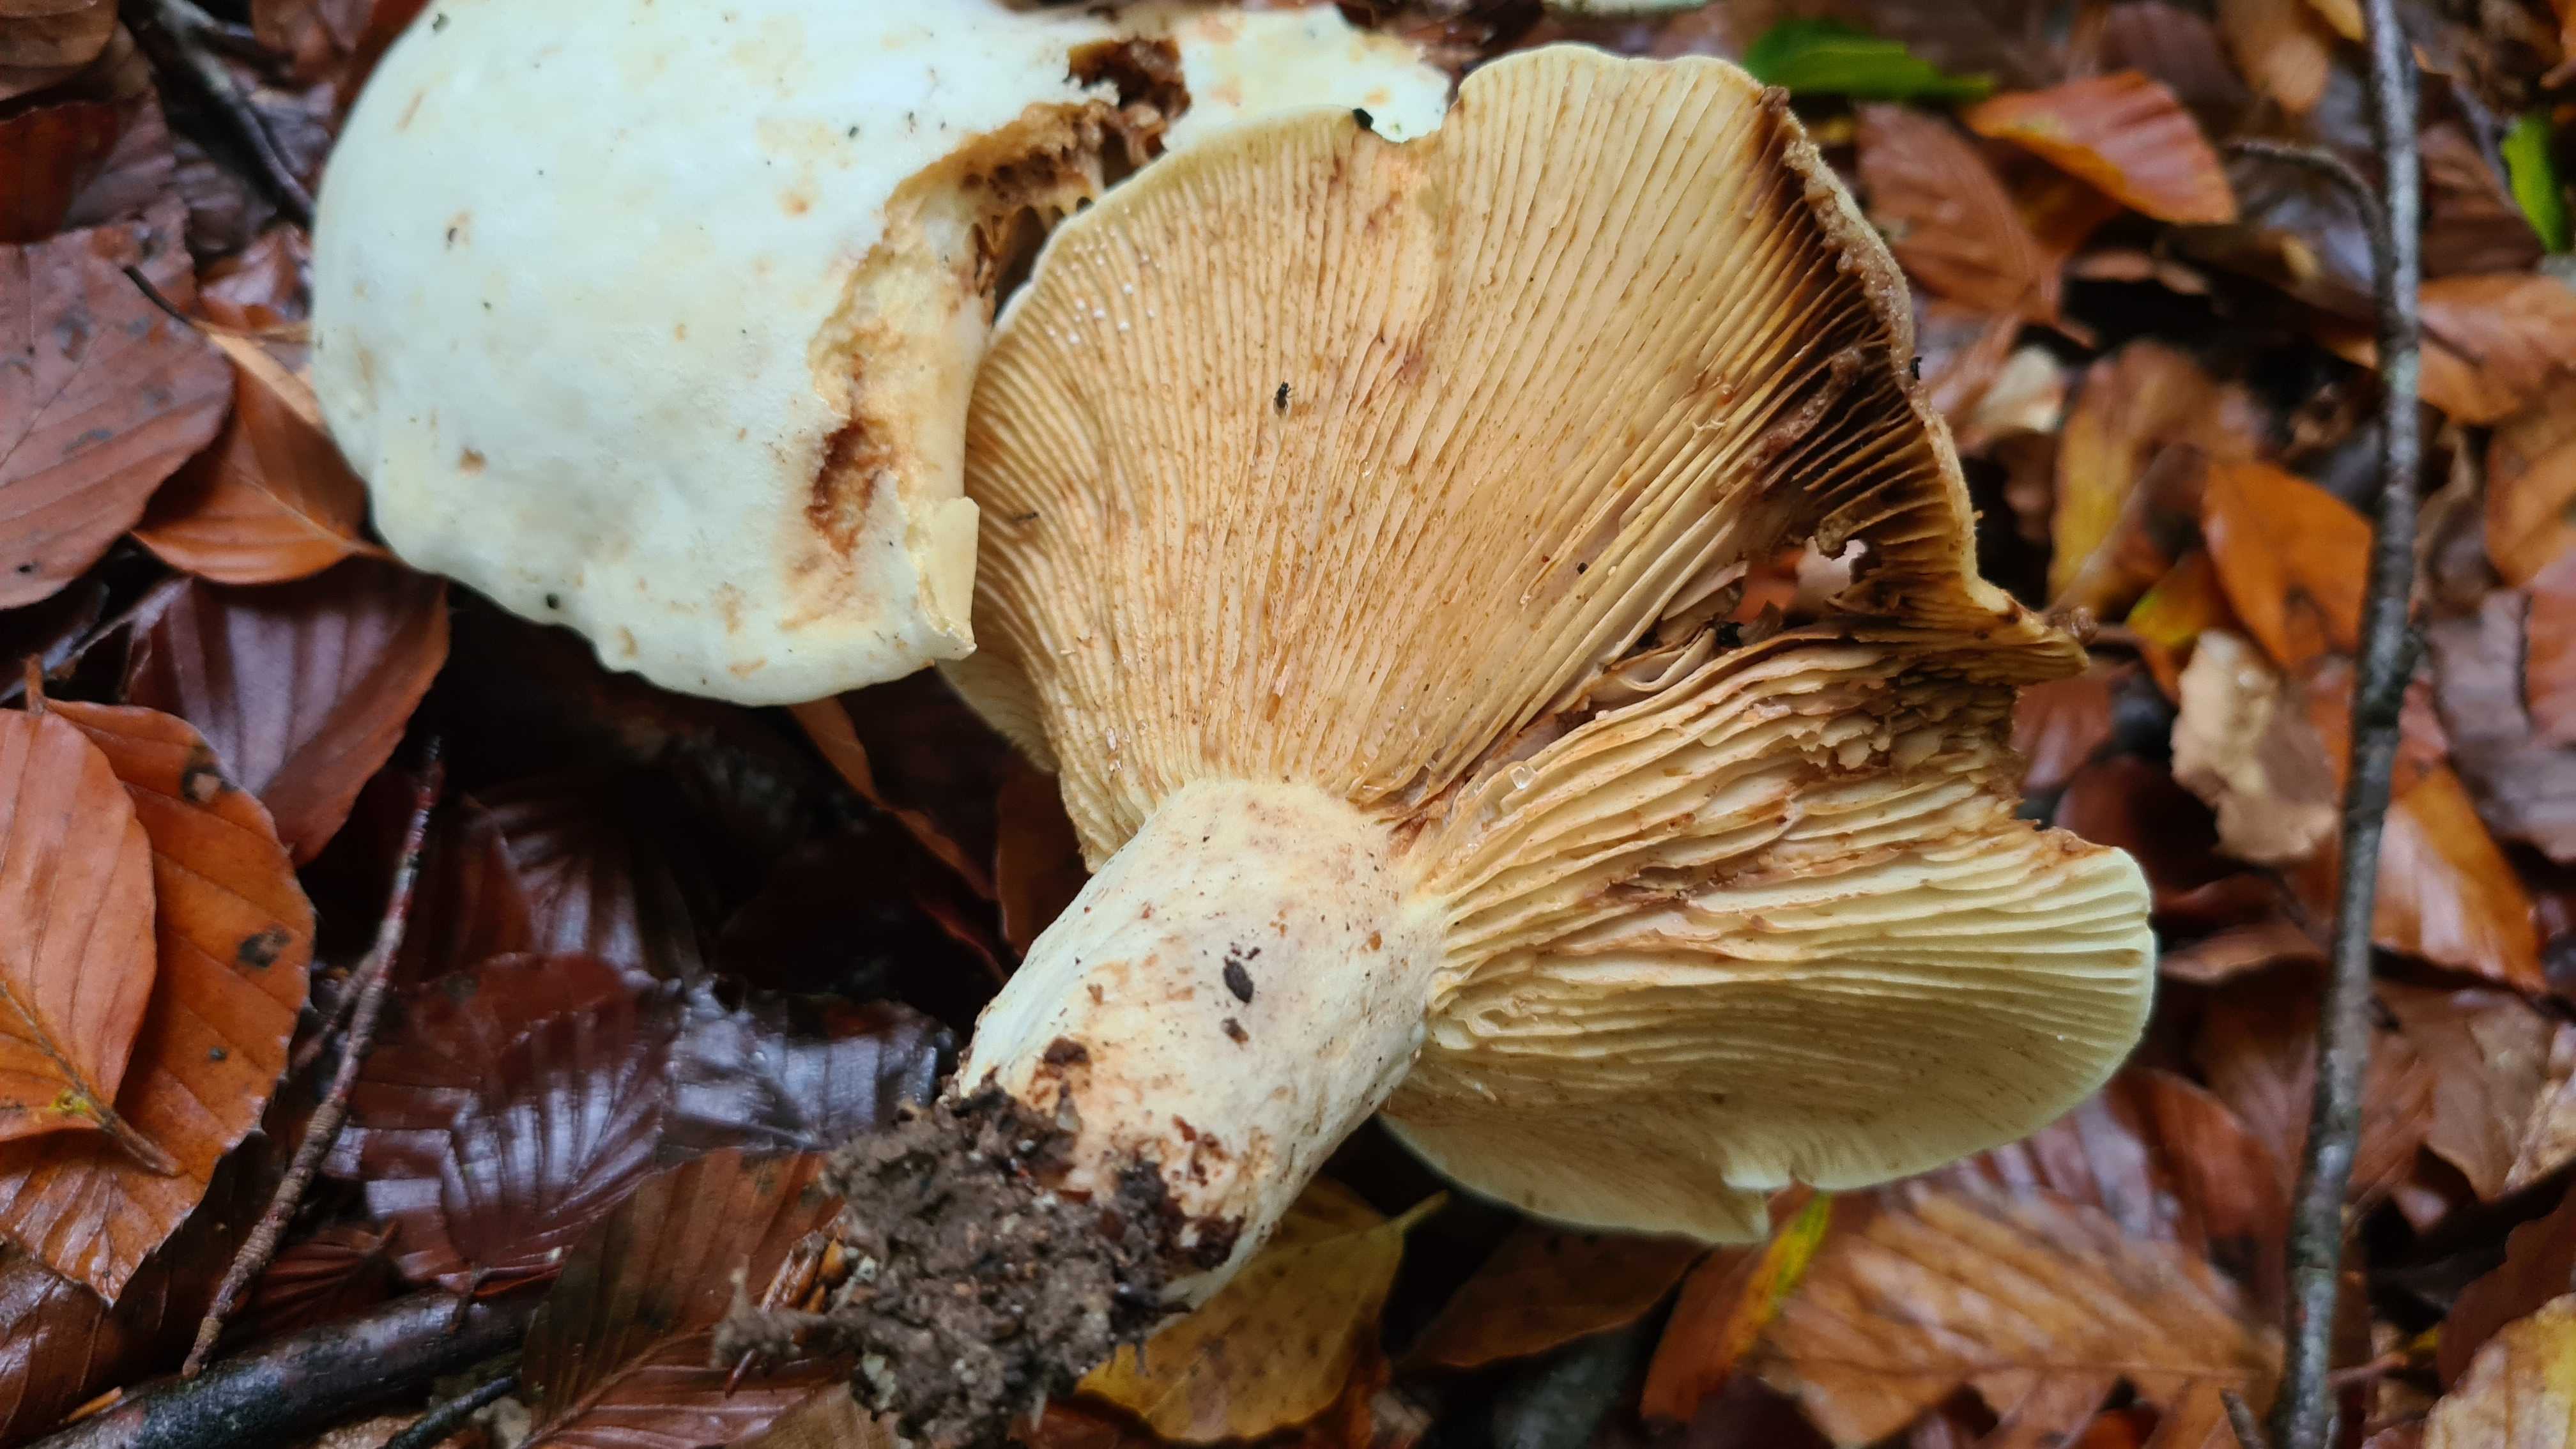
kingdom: Fungi
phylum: Basidiomycota
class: Agaricomycetes
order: Russulales
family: Russulaceae
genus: Lactifluus
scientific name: Lactifluus vellereus
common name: hvidfiltet mælkehat
